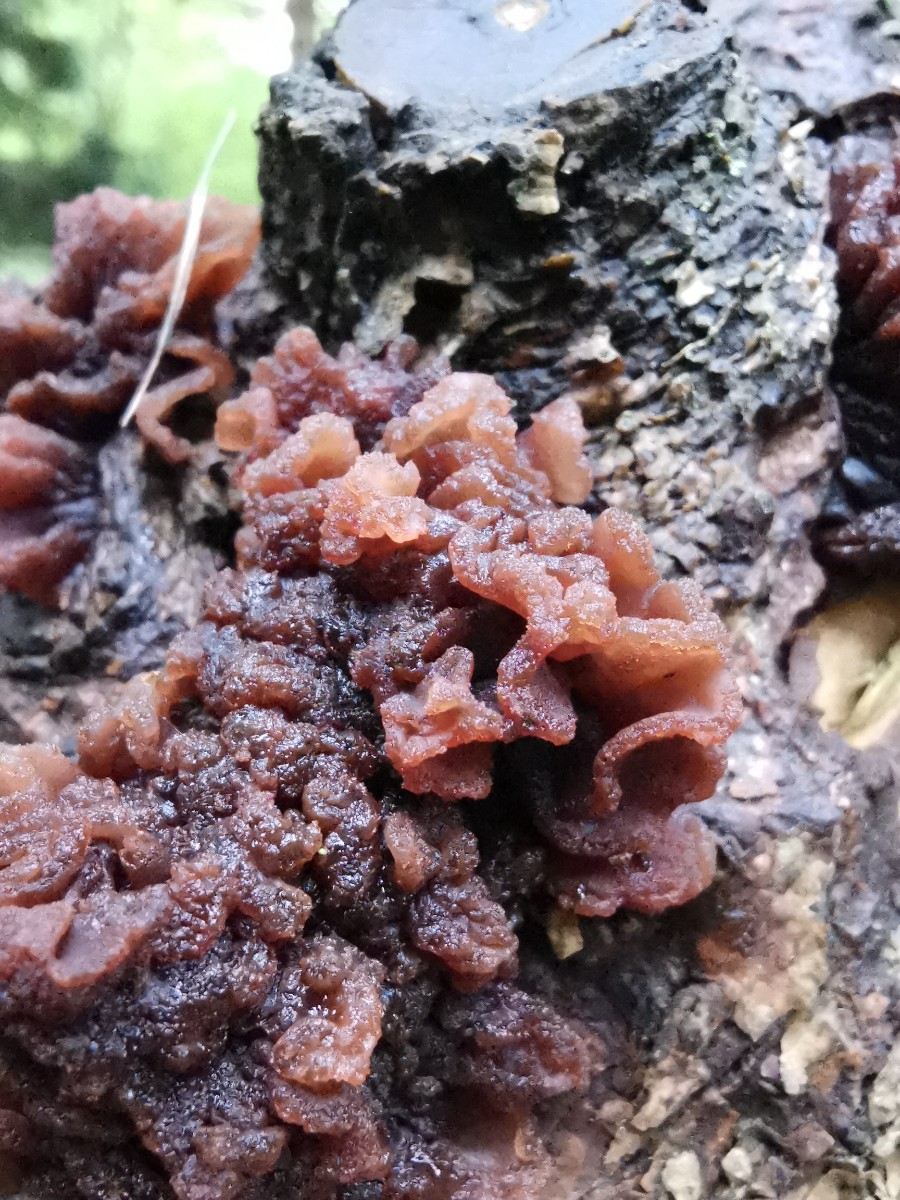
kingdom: Fungi
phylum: Basidiomycota
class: Tremellomycetes
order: Tremellales
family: Tremellaceae
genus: Phaeotremella
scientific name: Phaeotremella foliacea
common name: brun bævresvamp
